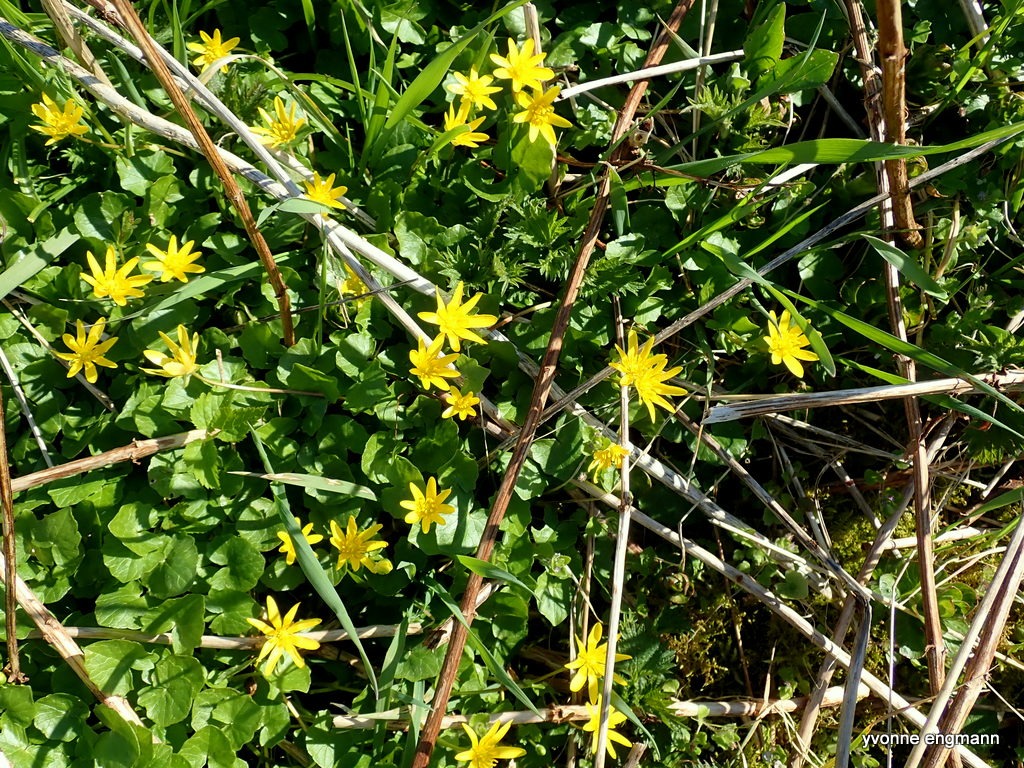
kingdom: Plantae
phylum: Tracheophyta
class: Magnoliopsida
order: Ranunculales
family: Ranunculaceae
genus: Ficaria
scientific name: Ficaria verna
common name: Vorterod
